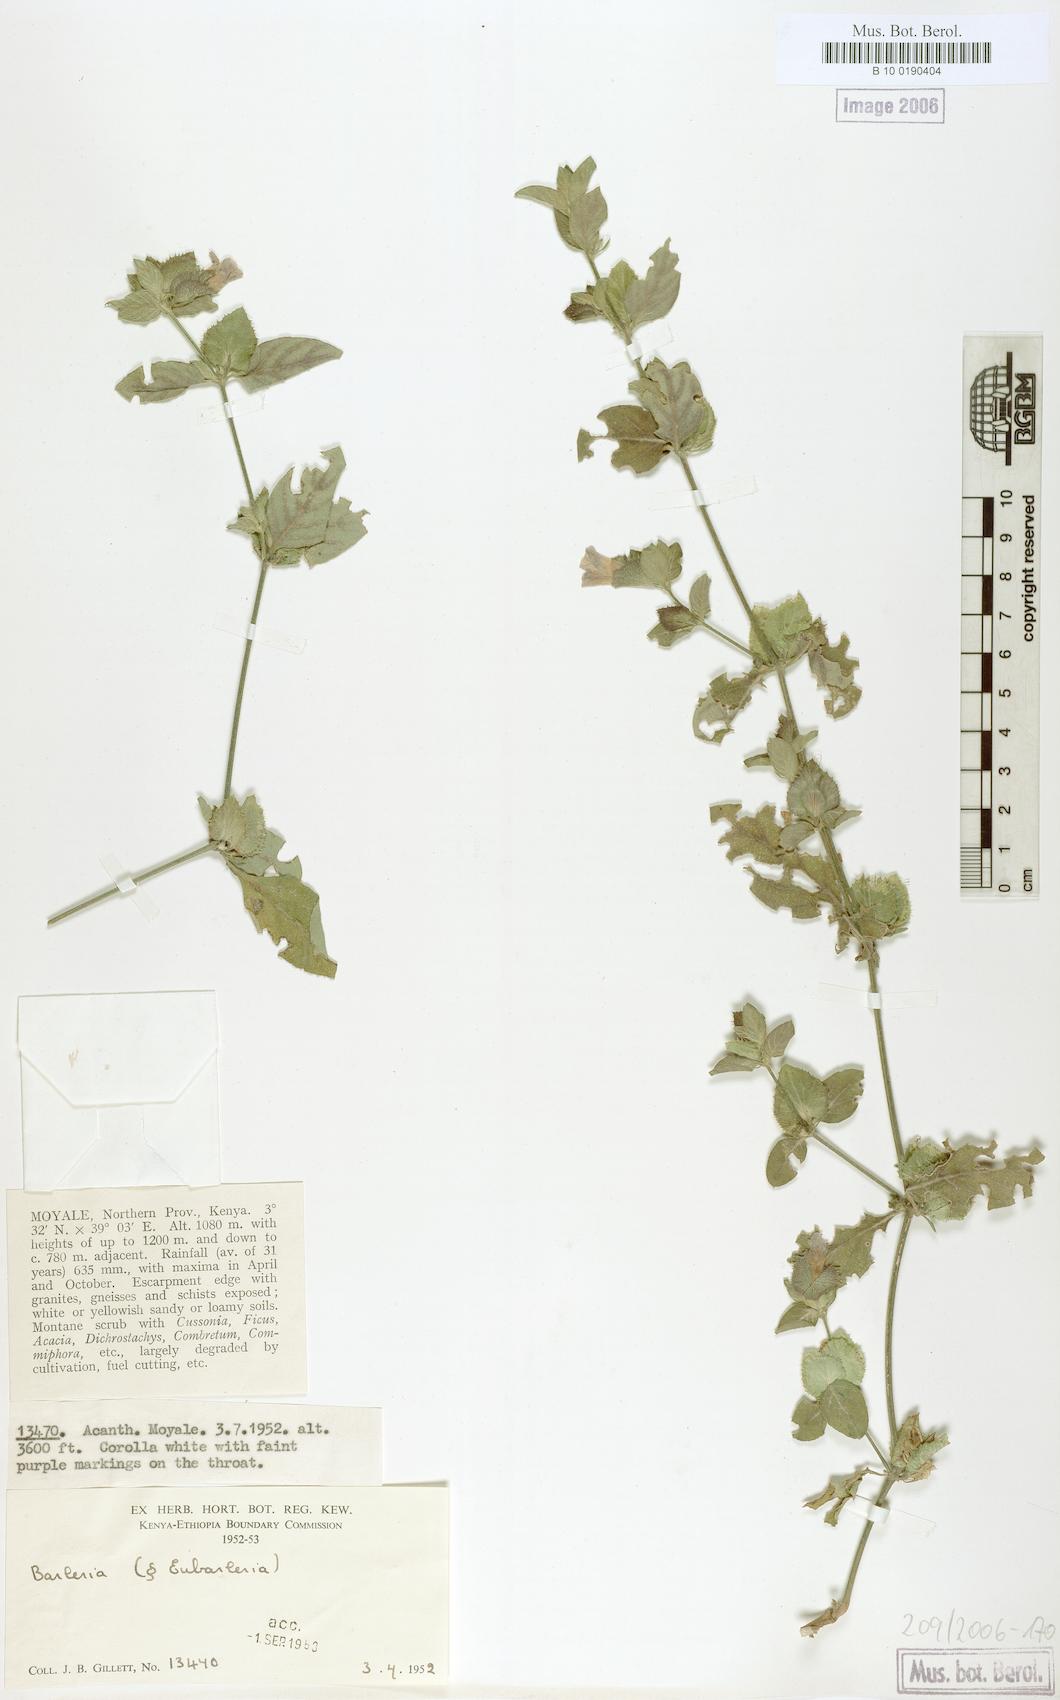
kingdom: Plantae
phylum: Tracheophyta
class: Magnoliopsida
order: Lamiales
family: Acanthaceae
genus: Barleria
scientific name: Barleria
